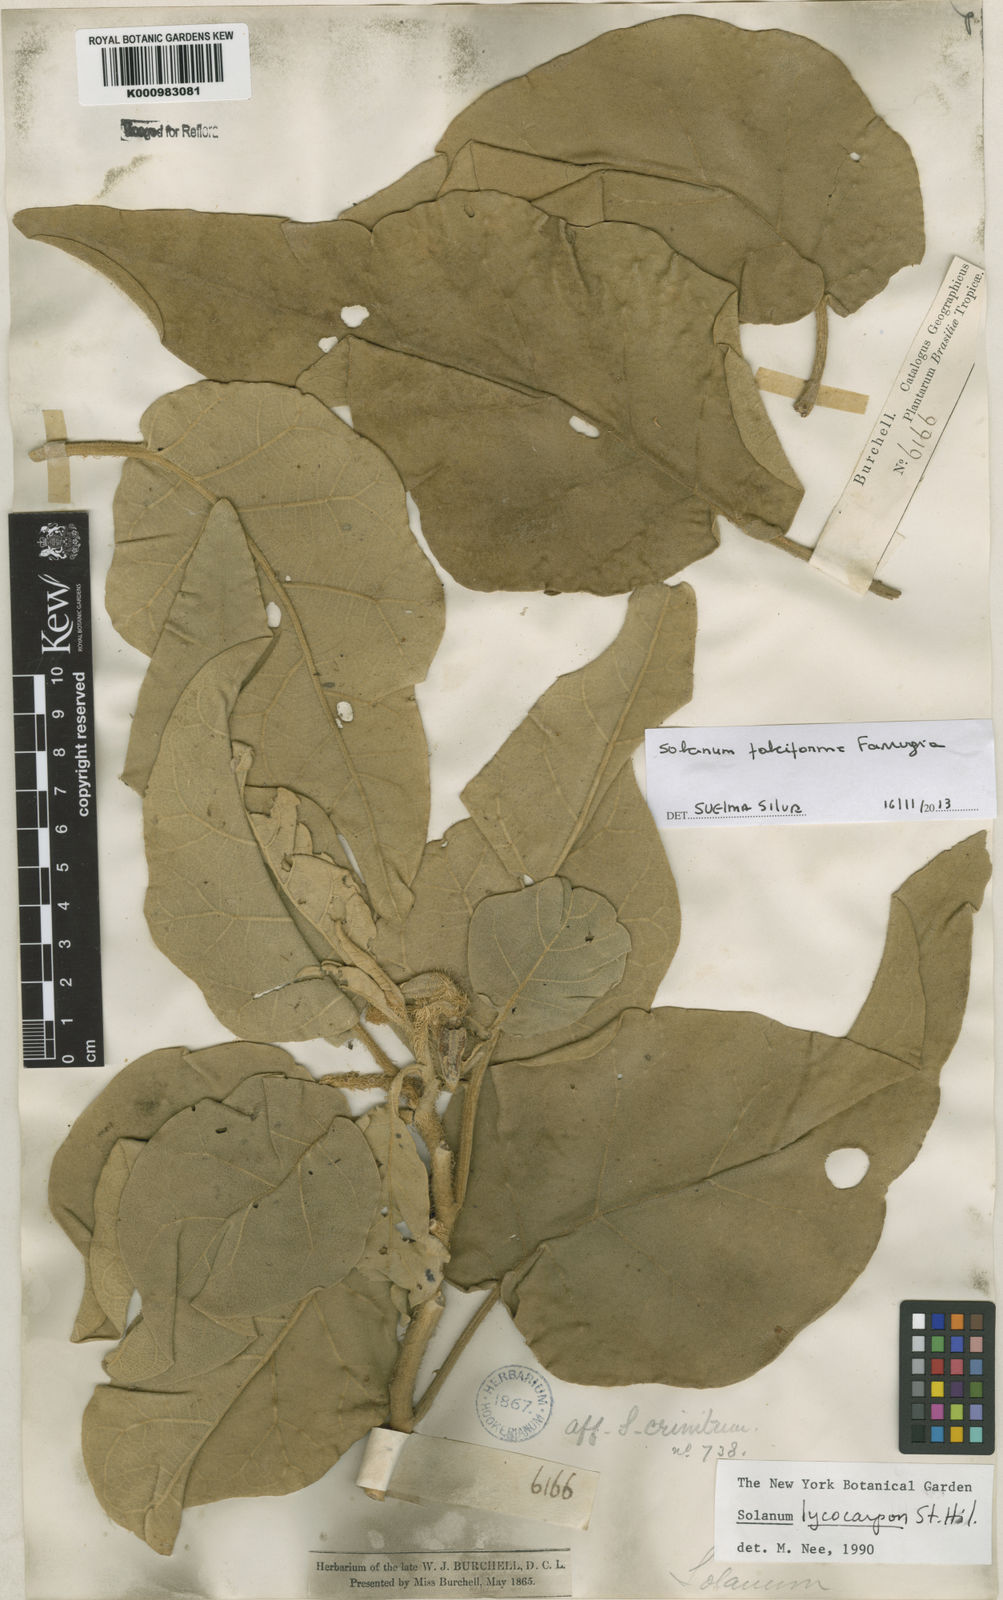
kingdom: Plantae
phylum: Tracheophyta
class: Magnoliopsida
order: Solanales
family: Solanaceae
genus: Solanum
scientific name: Solanum
